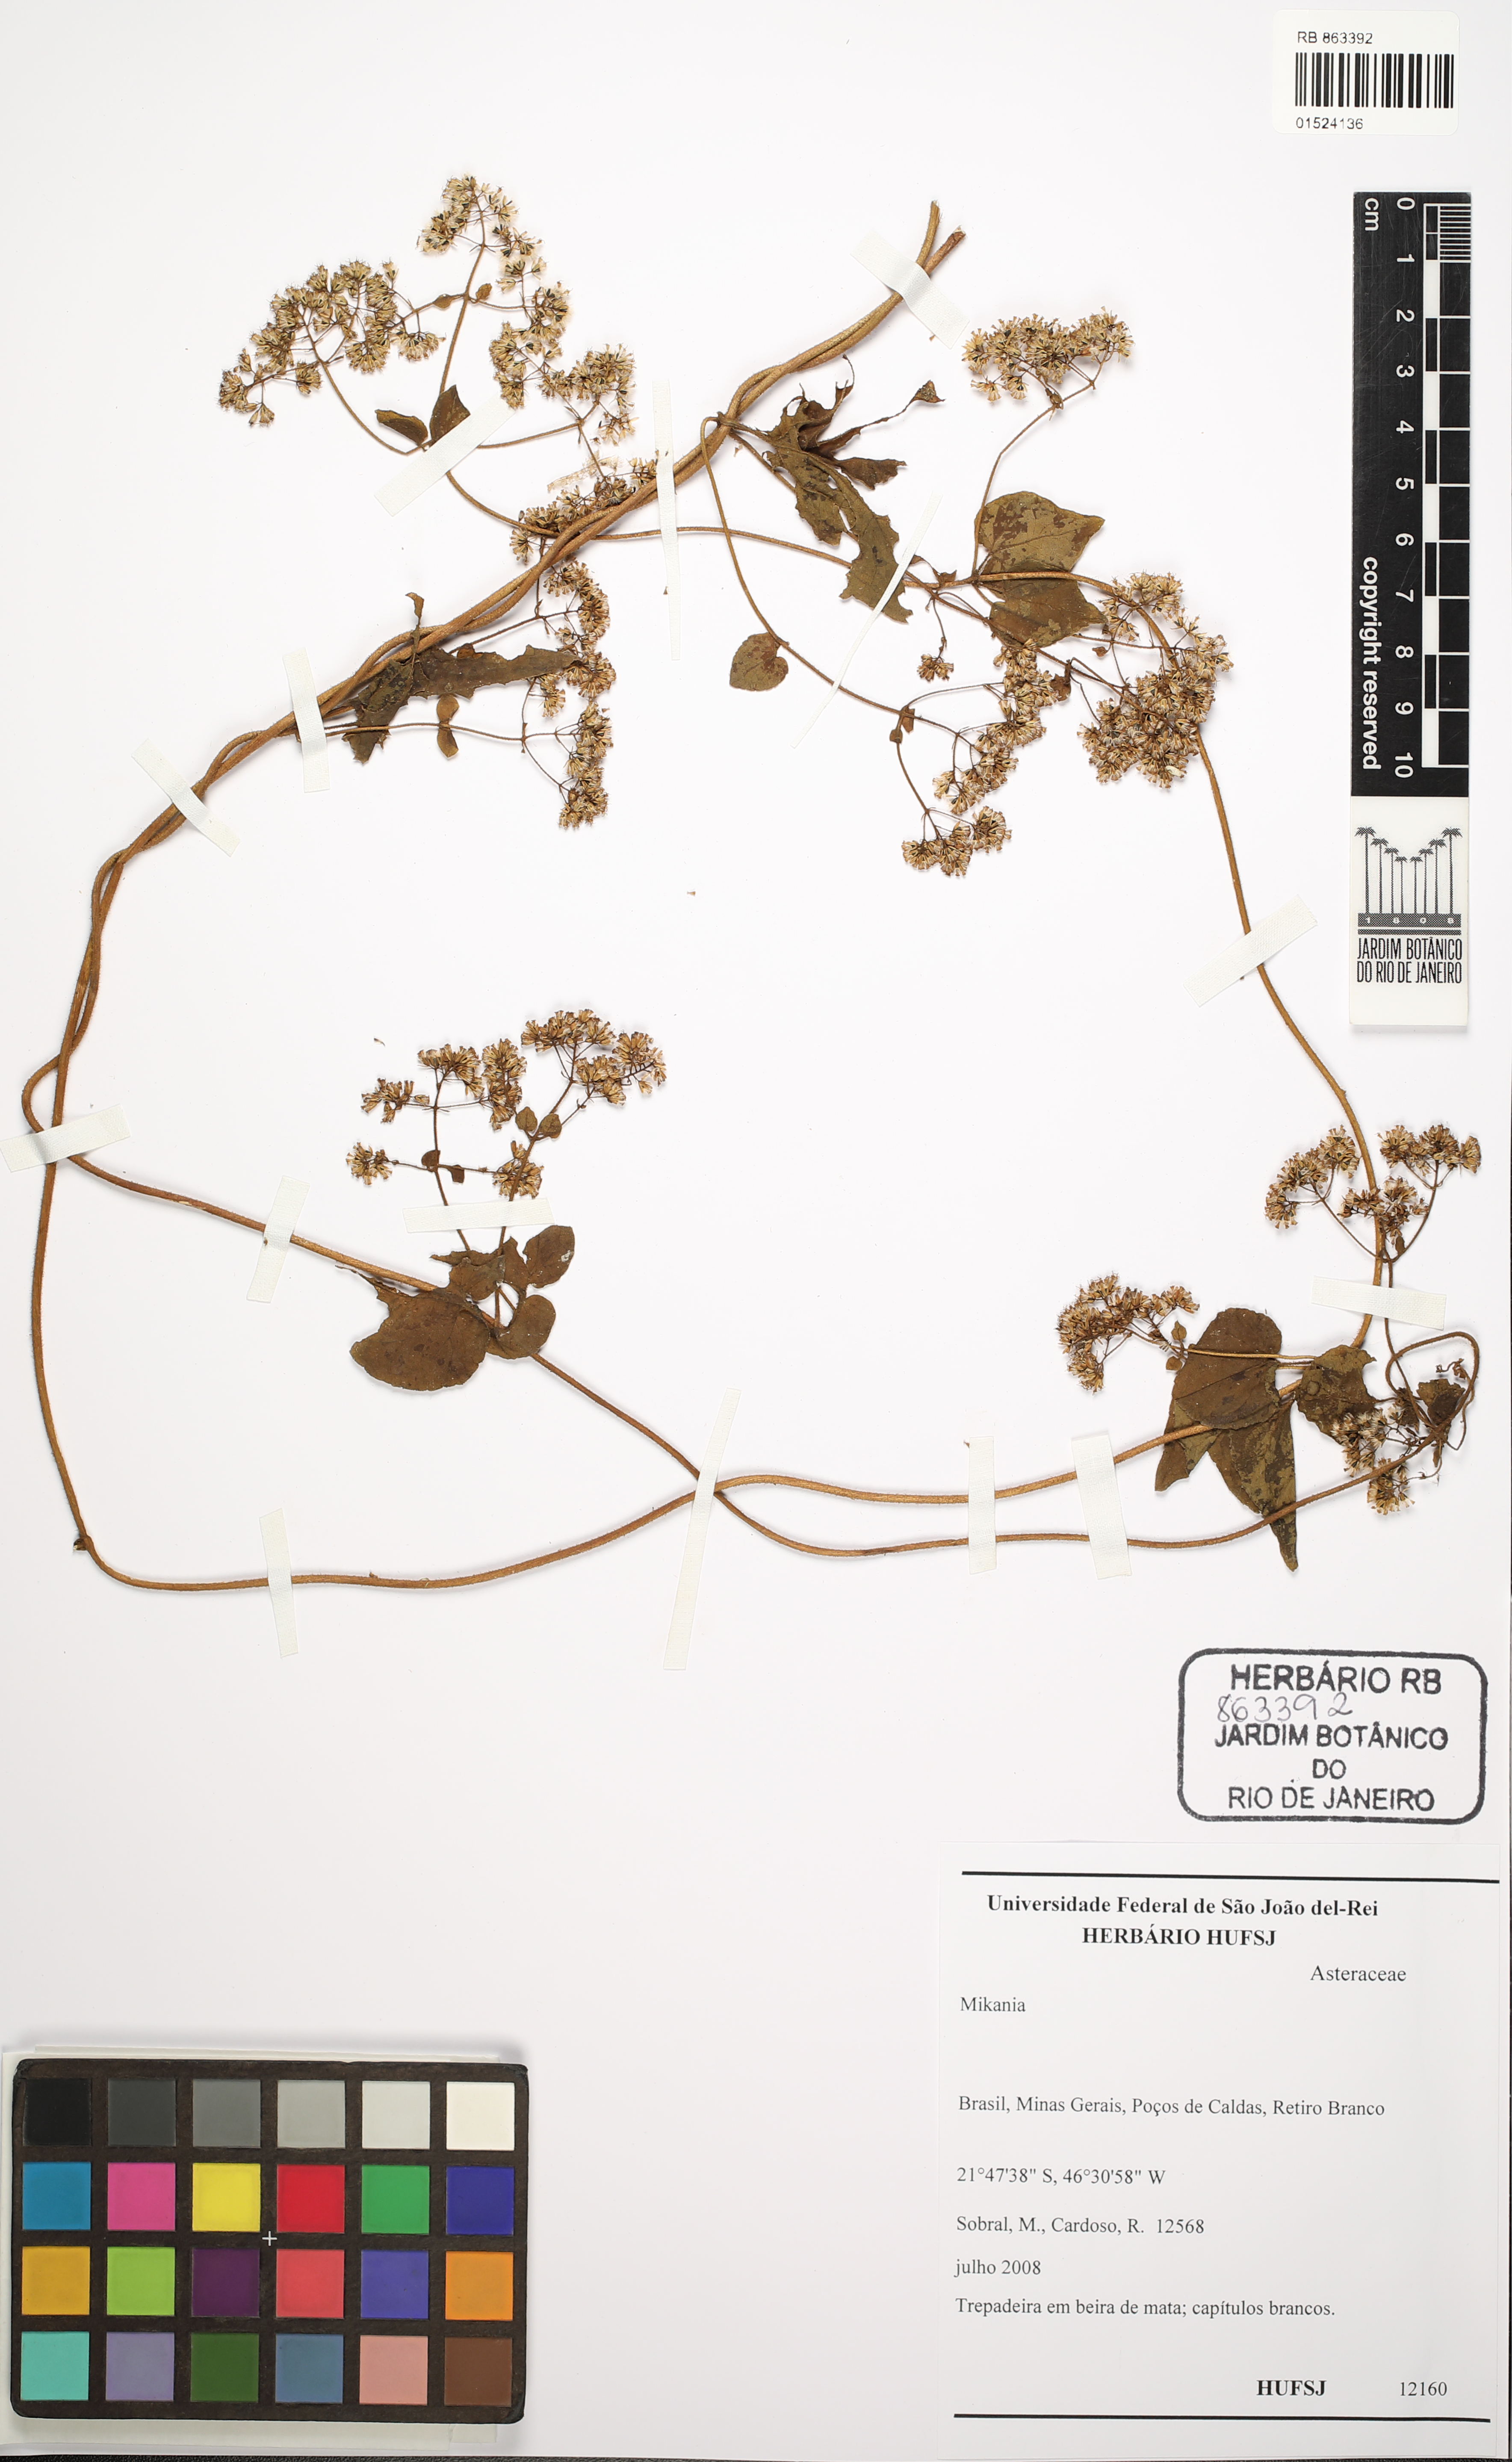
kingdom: Plantae
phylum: Tracheophyta
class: Magnoliopsida
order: Asterales
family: Asteraceae
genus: Mikania
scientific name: Mikania
